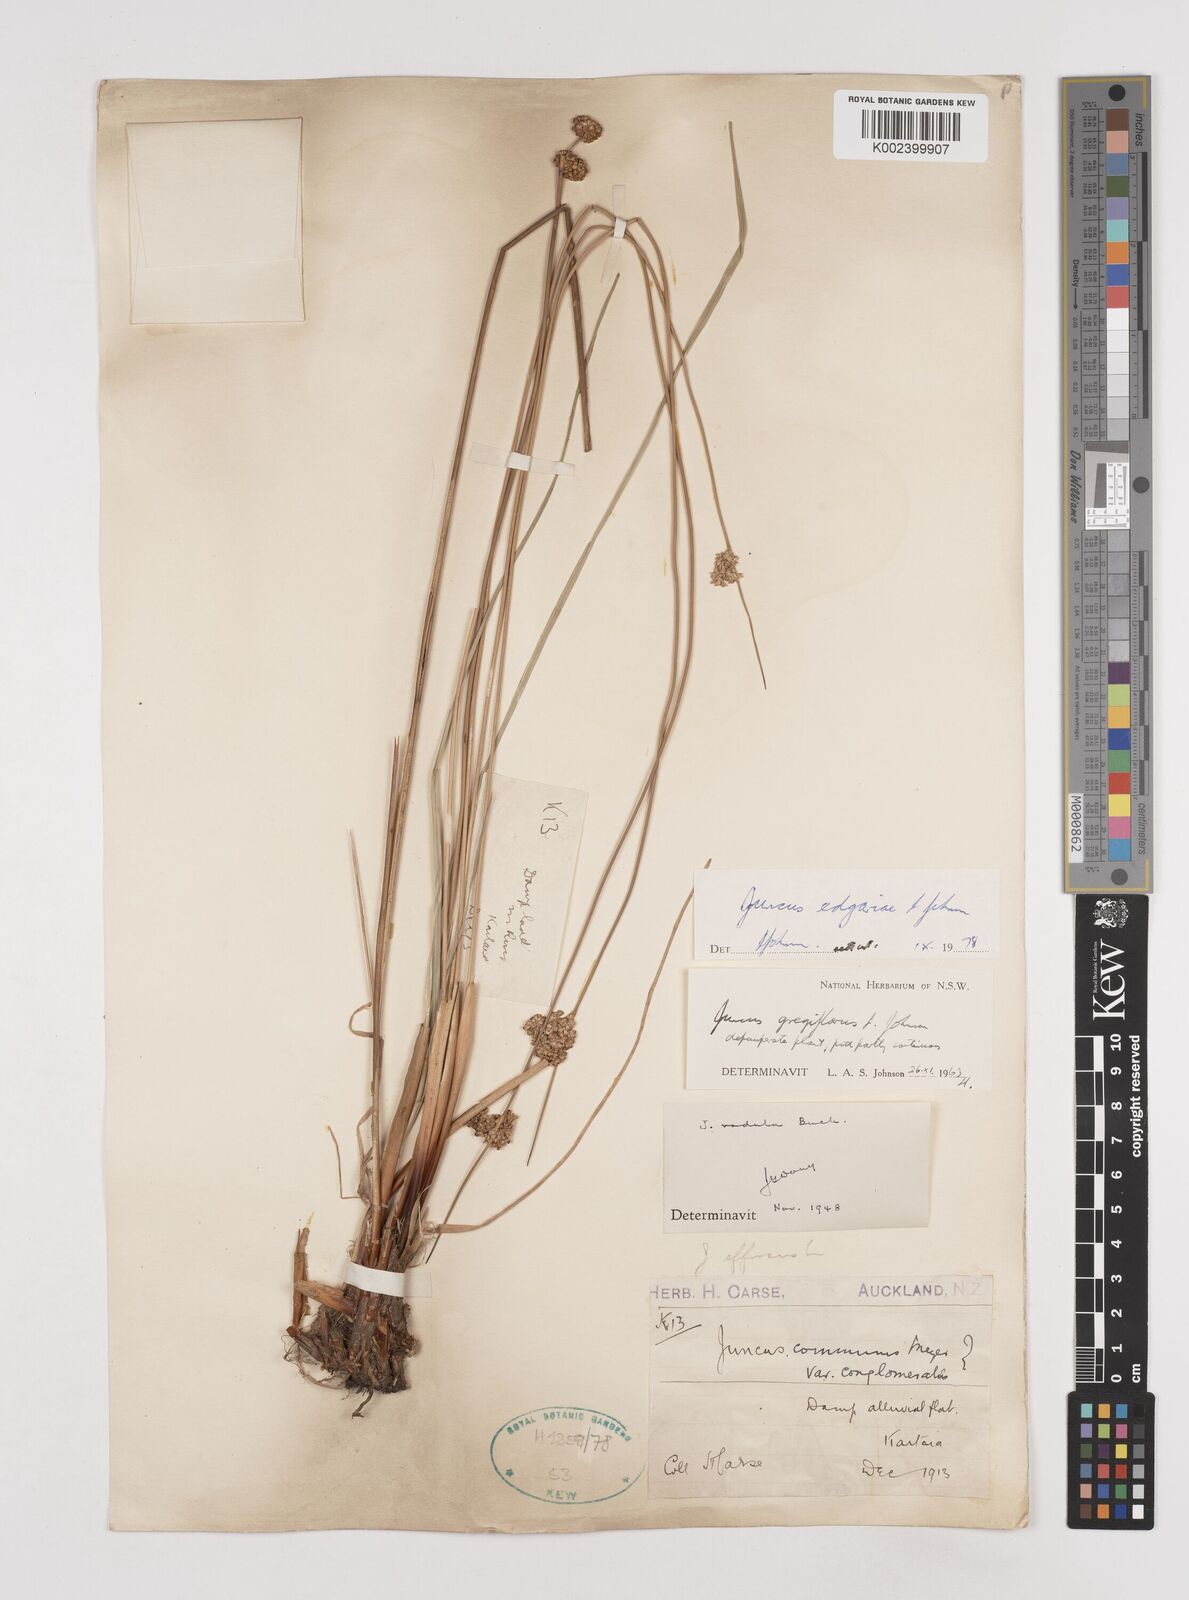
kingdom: Plantae
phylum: Tracheophyta
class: Liliopsida
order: Poales
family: Juncaceae
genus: Juncus
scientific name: Juncus edgariae
